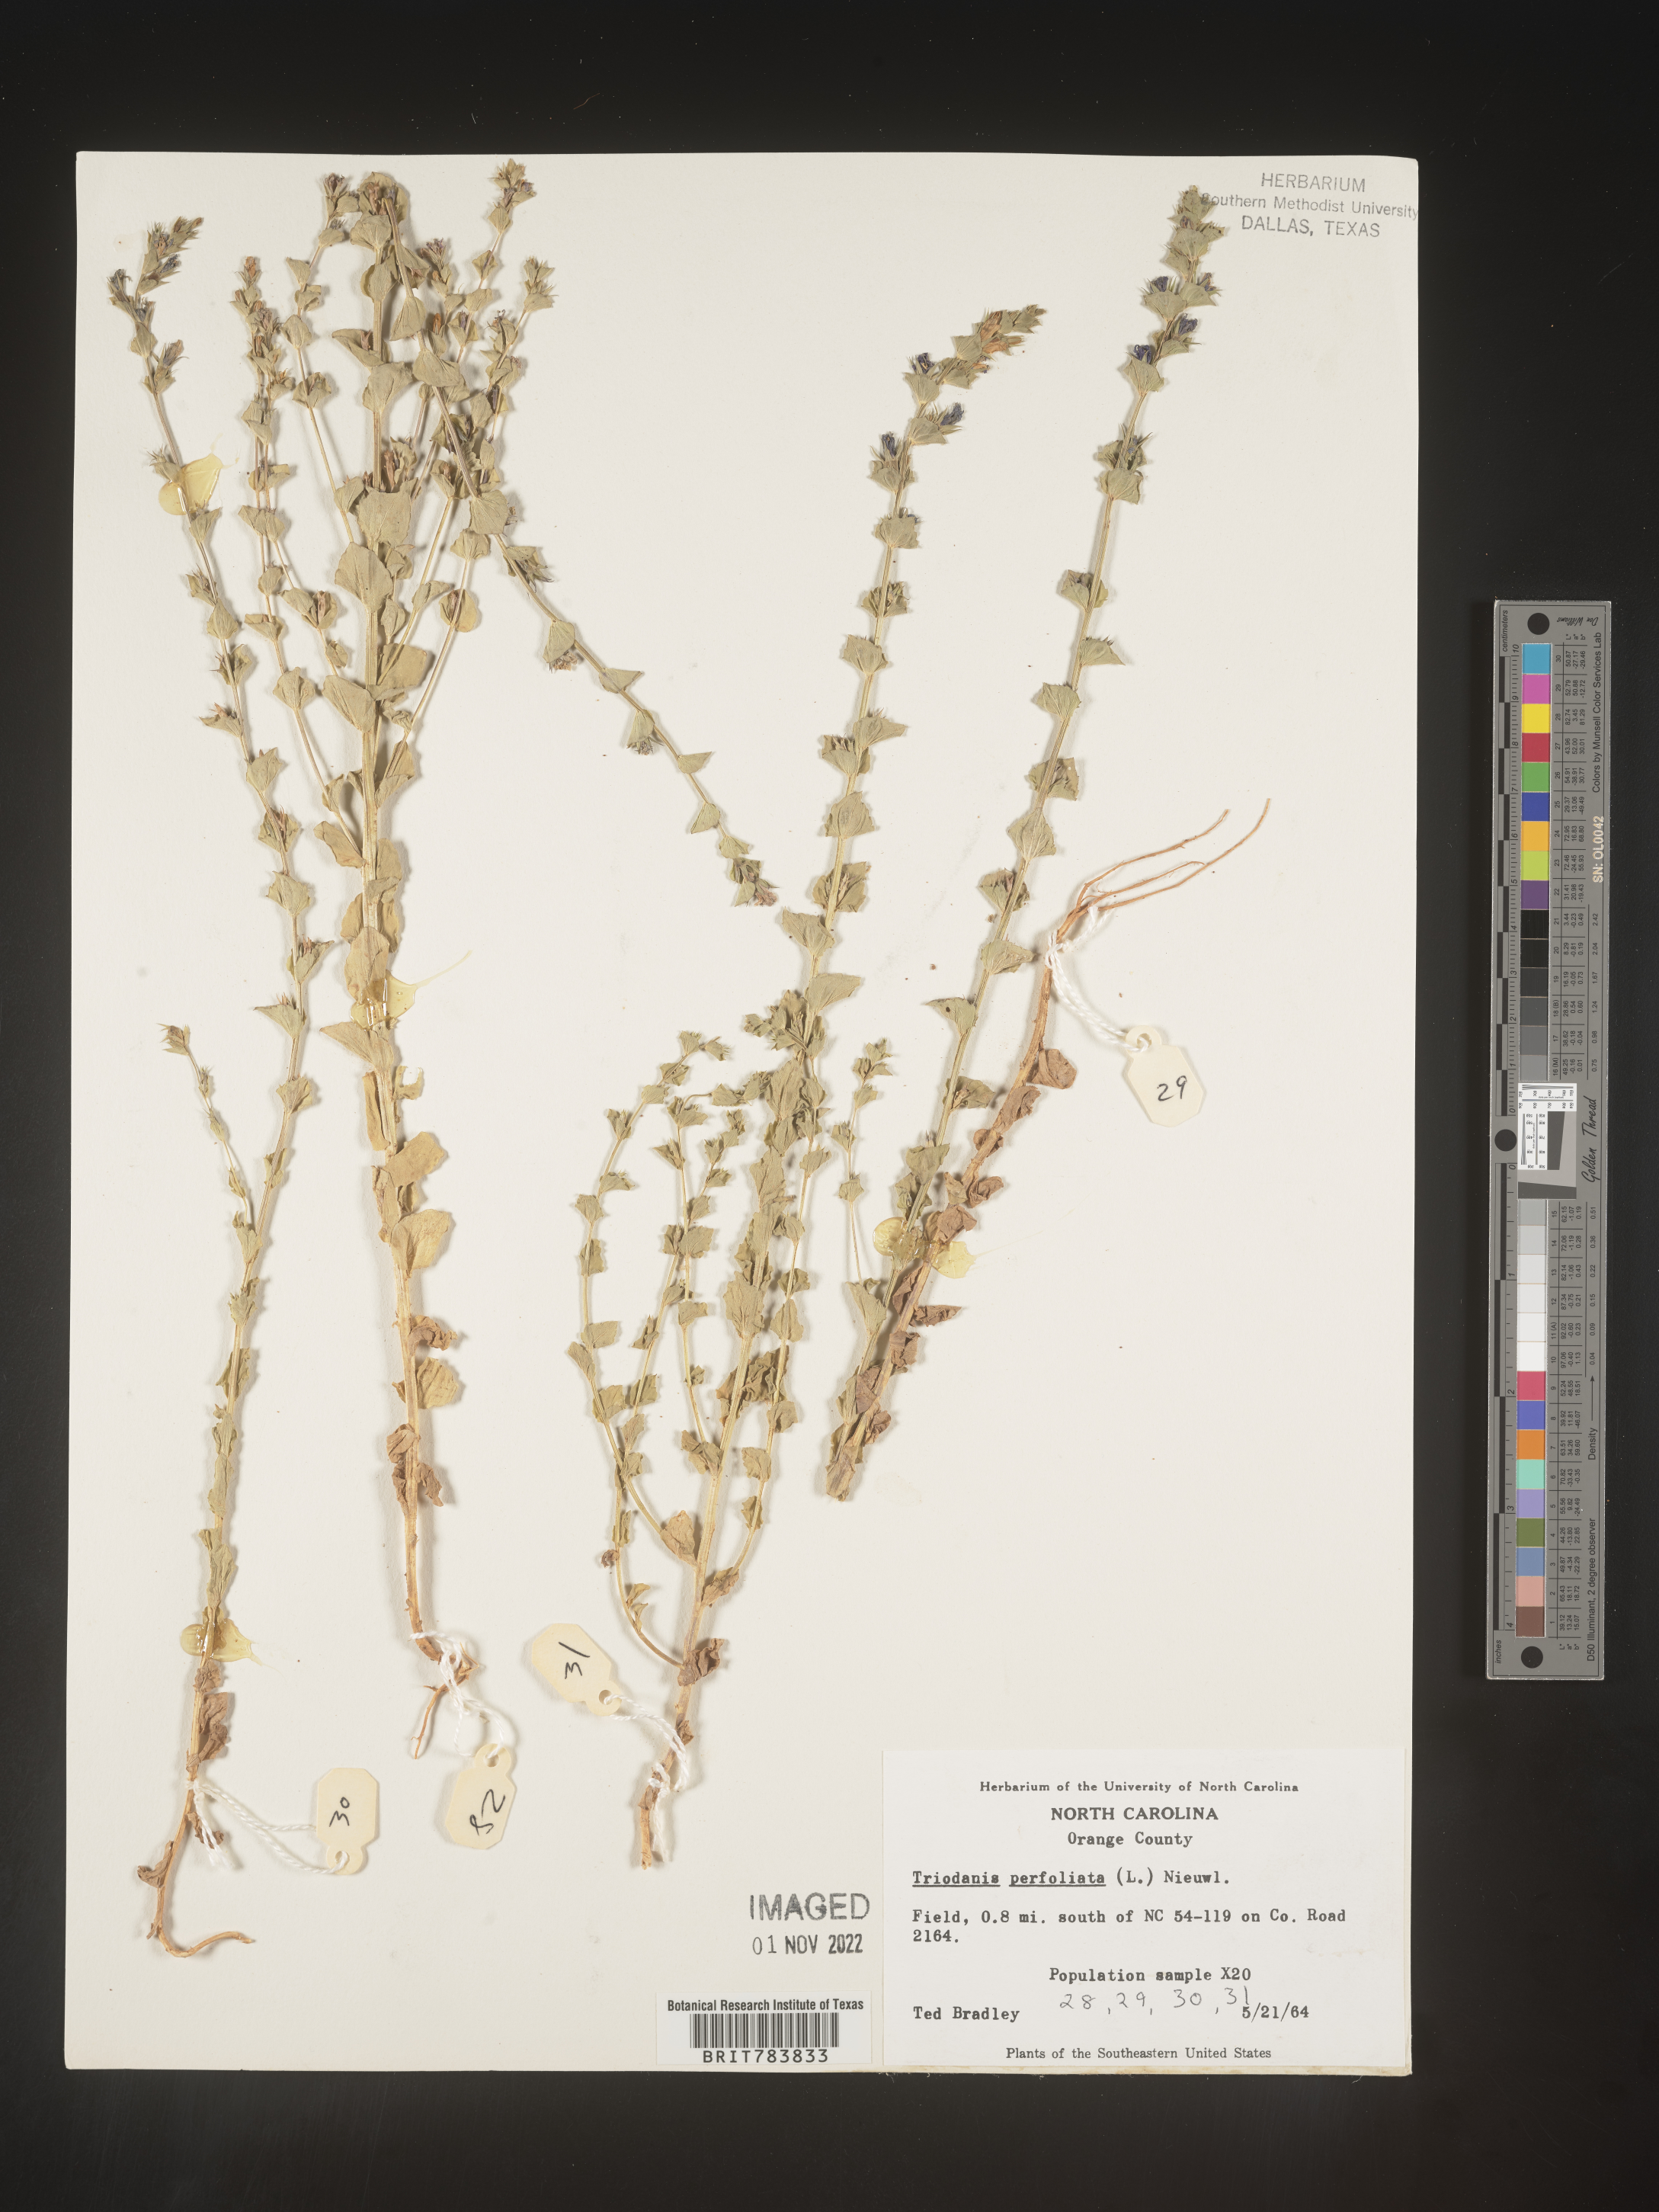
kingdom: Plantae
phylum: Tracheophyta
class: Magnoliopsida
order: Asterales
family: Campanulaceae
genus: Triodanis
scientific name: Triodanis perfoliata
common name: Clasping venus' looking-glass
